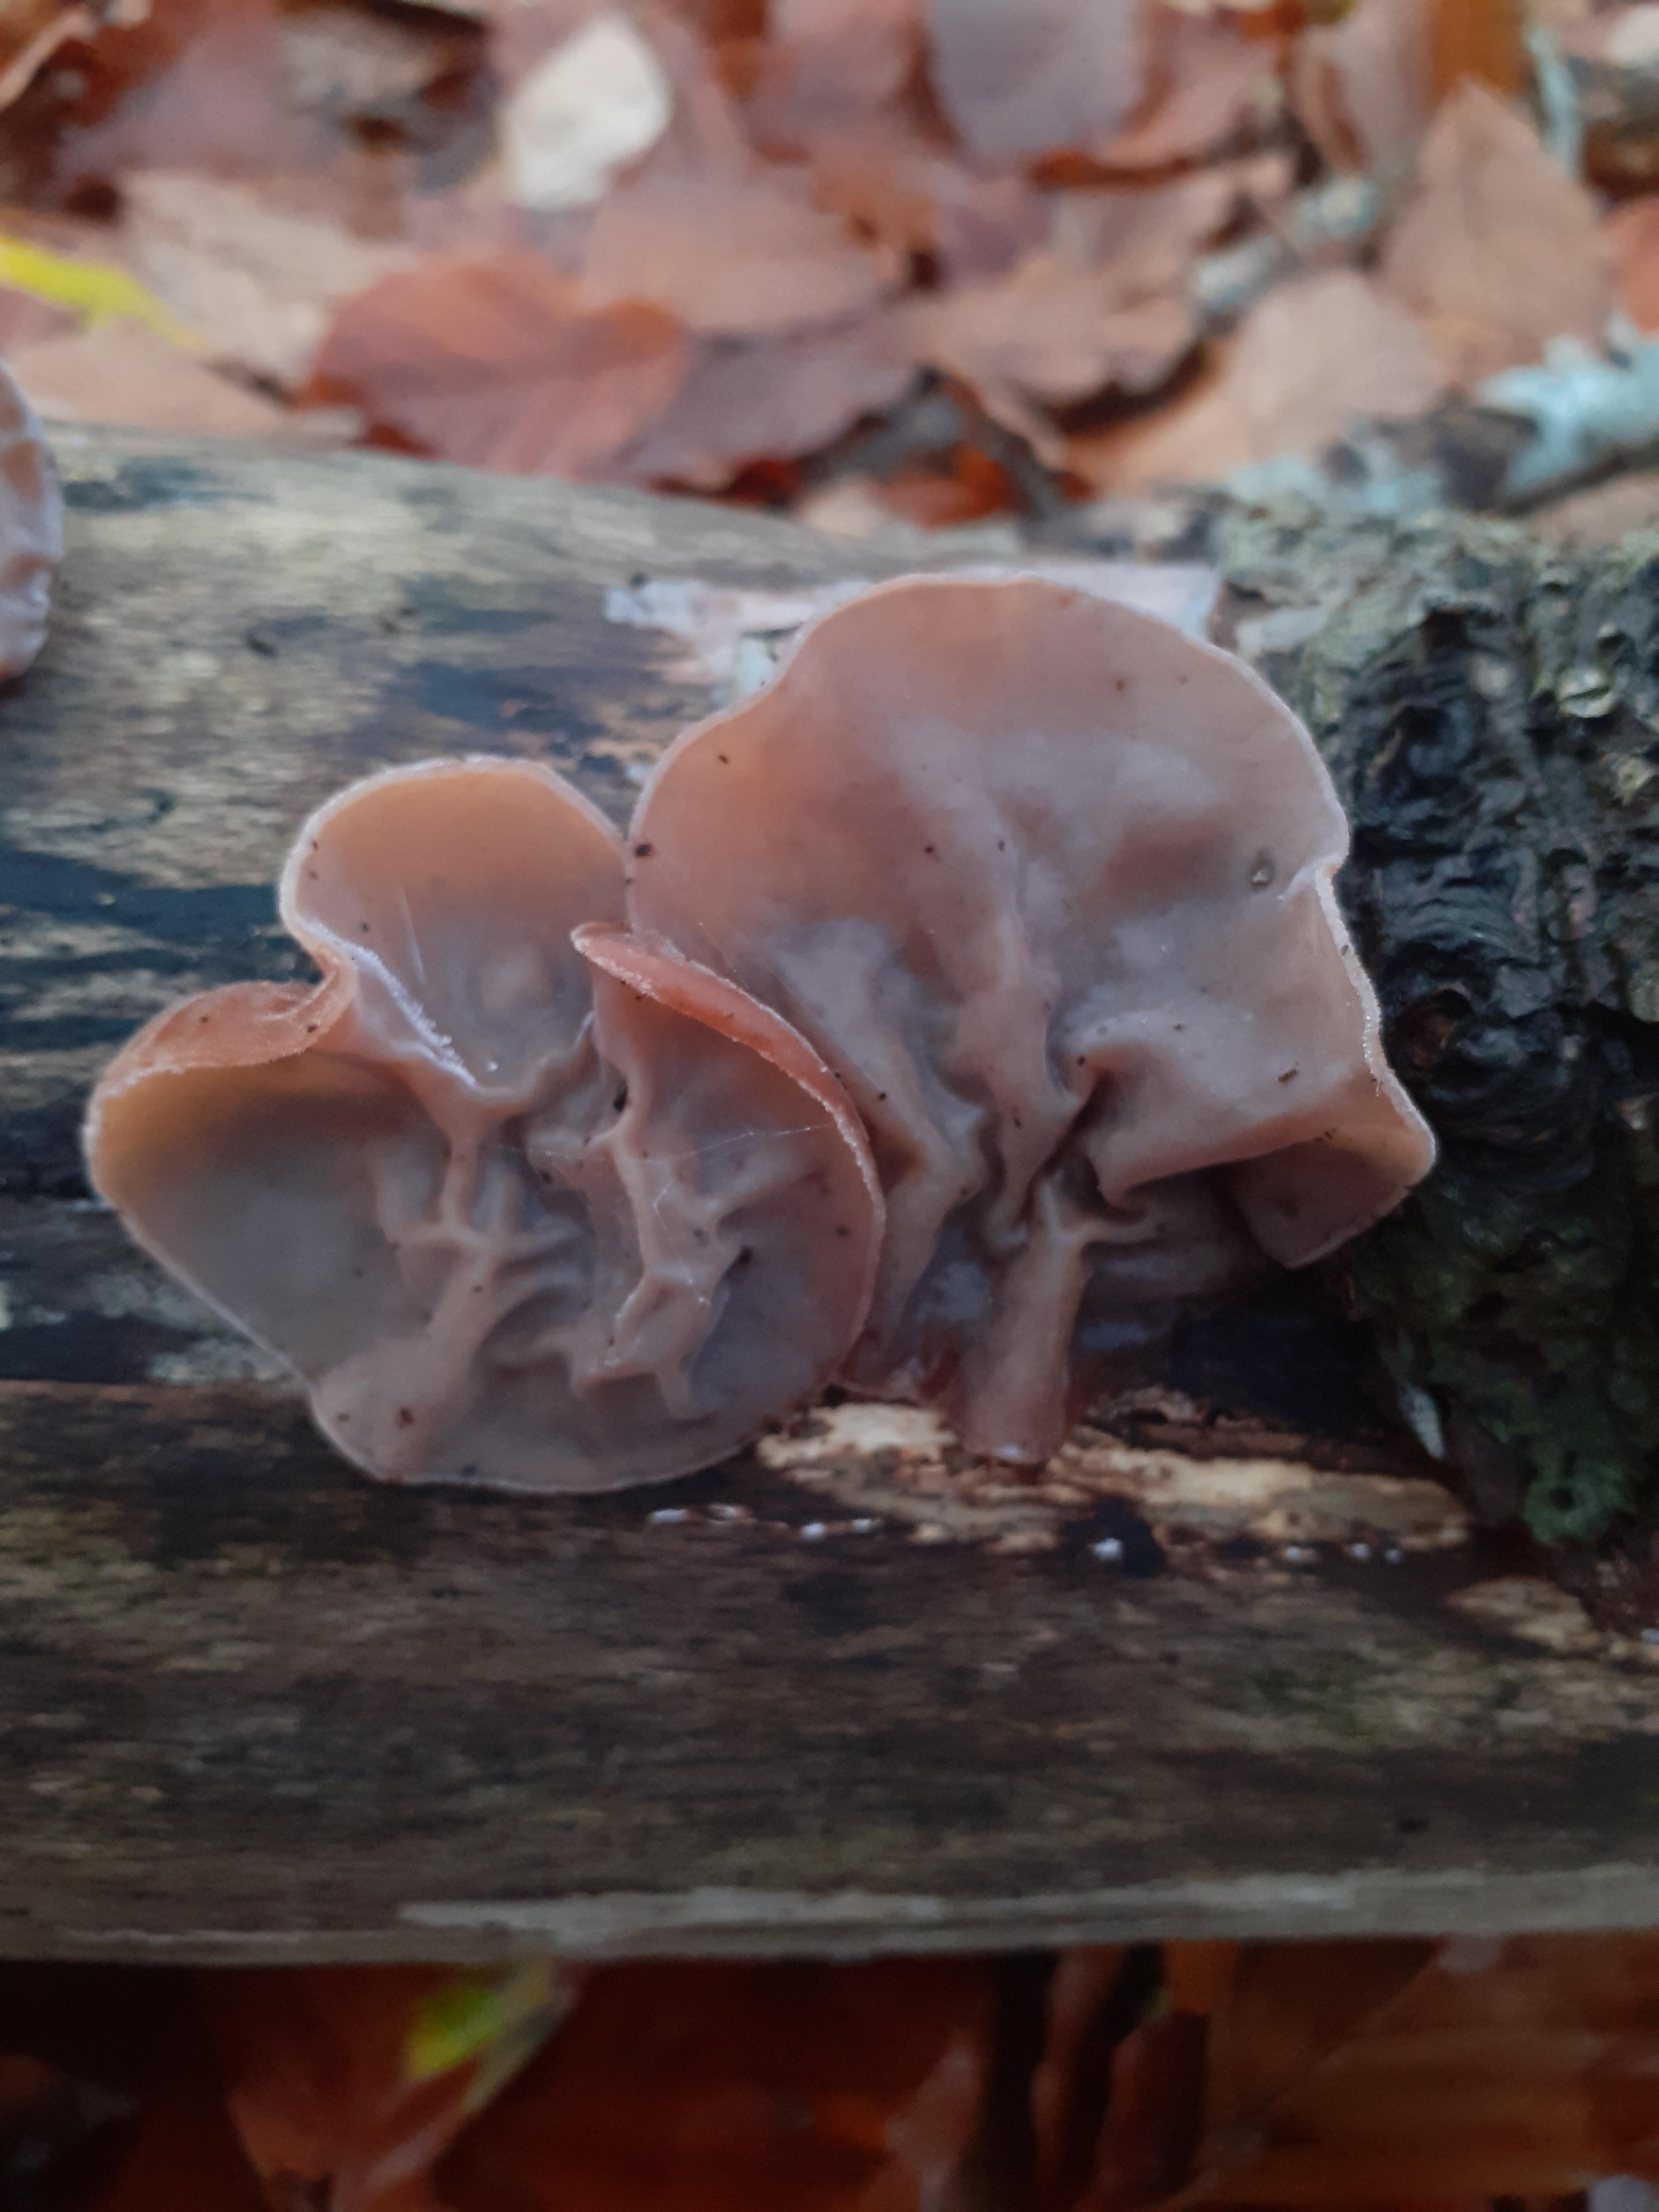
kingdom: Fungi
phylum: Basidiomycota
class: Agaricomycetes
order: Auriculariales
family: Auriculariaceae
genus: Auricularia
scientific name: Auricularia auricula-judae
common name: almindelig judasøre
